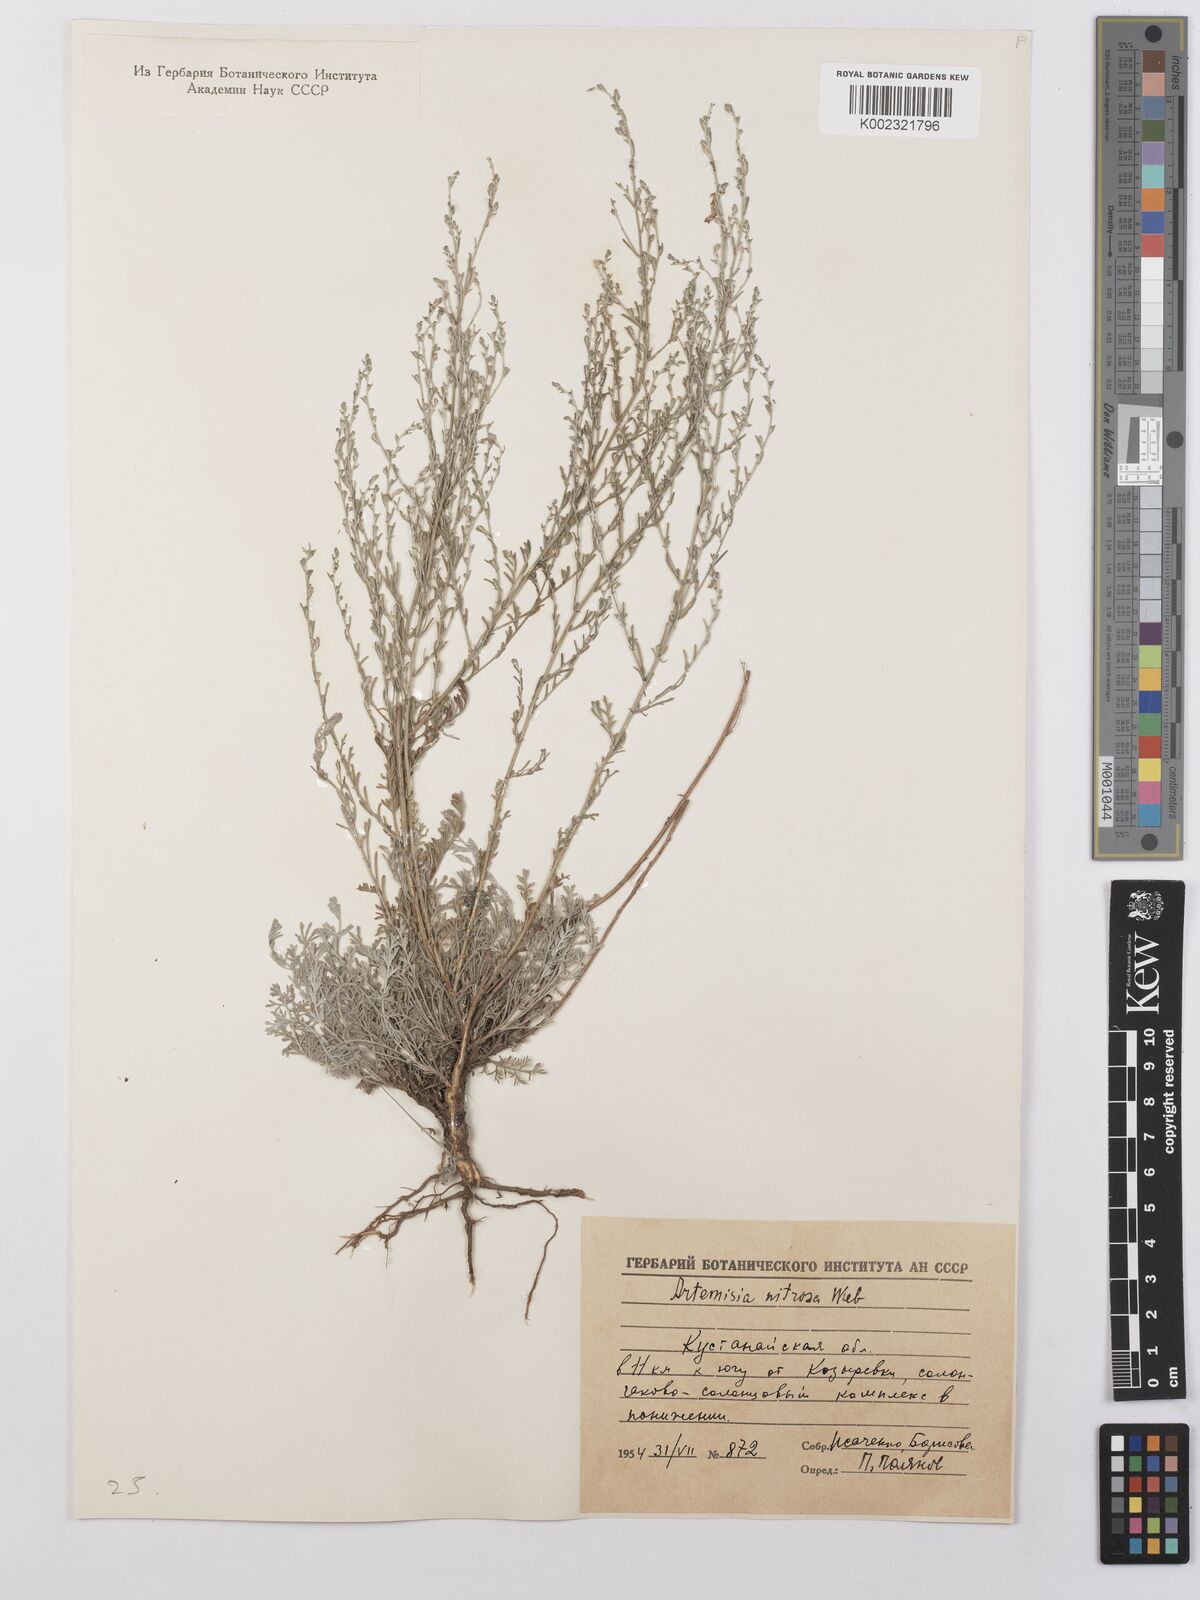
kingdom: Plantae
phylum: Tracheophyta
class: Magnoliopsida
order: Asterales
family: Asteraceae
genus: Artemisia
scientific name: Artemisia nitrosa
